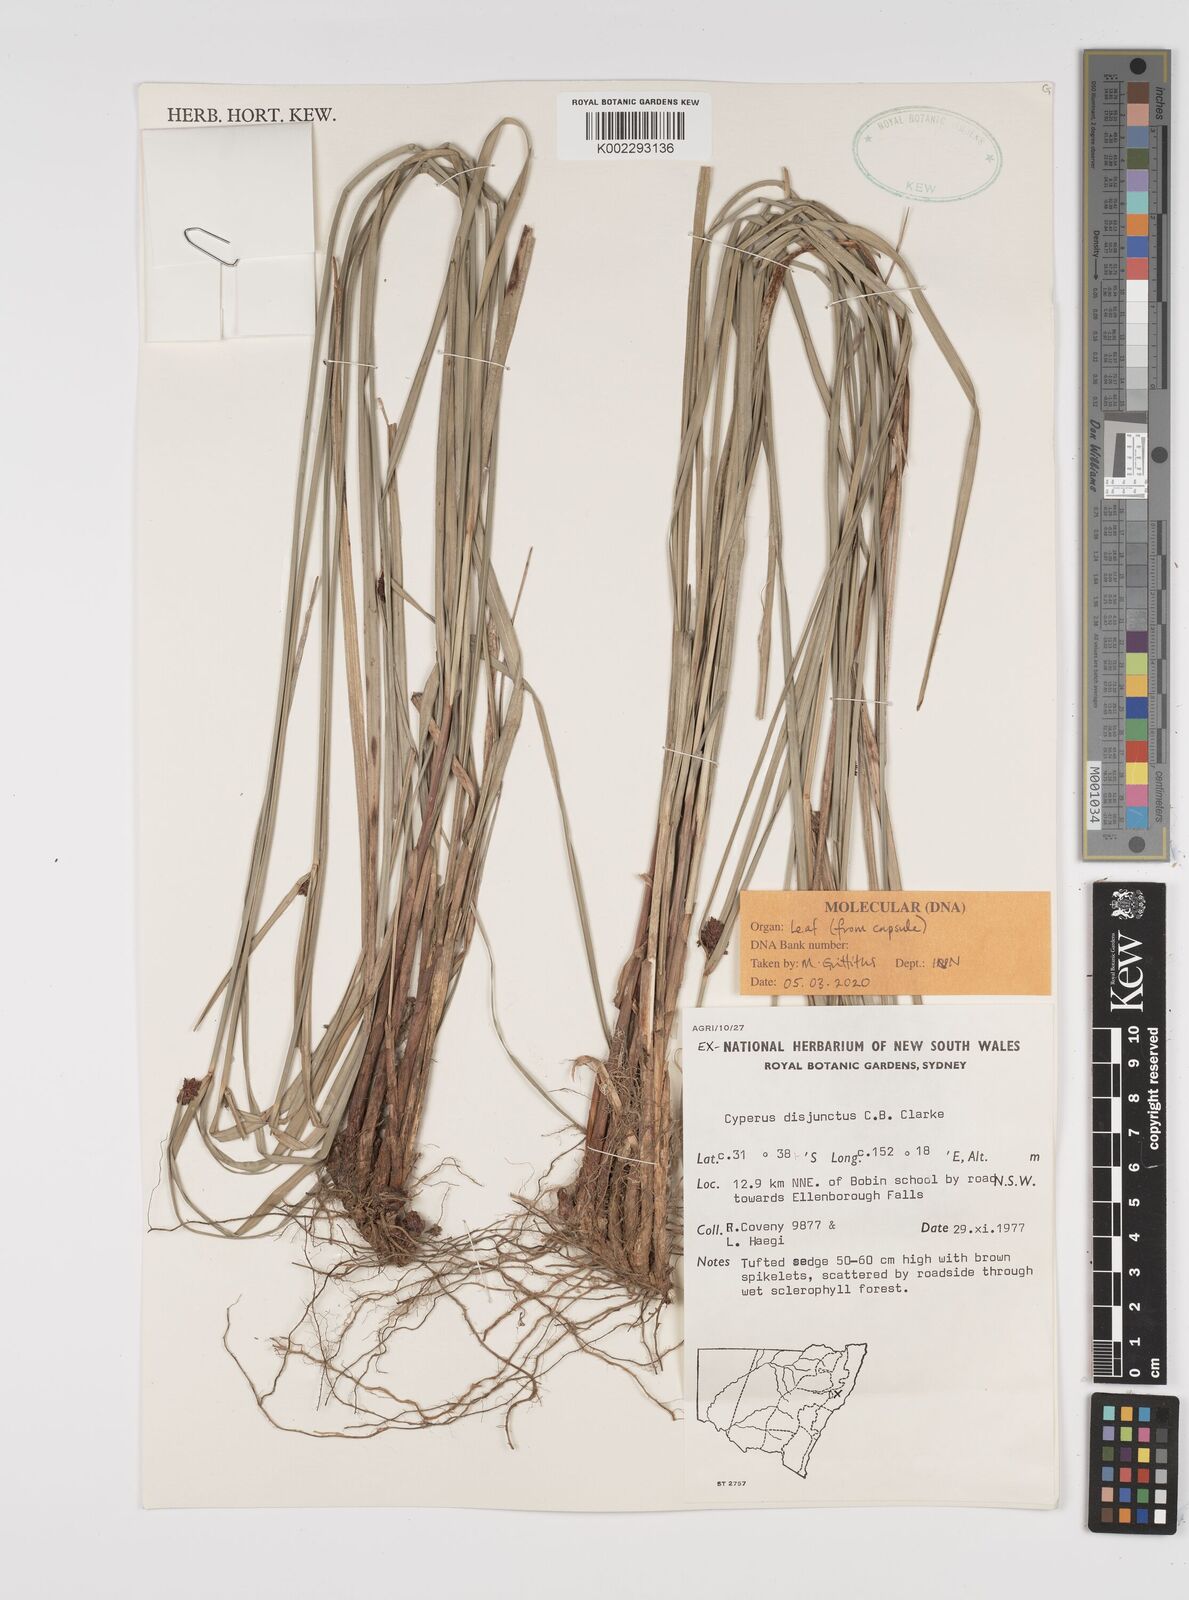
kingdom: Plantae
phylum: Tracheophyta
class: Liliopsida
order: Poales
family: Cyperaceae
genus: Cyperus
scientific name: Cyperus disjunctus
